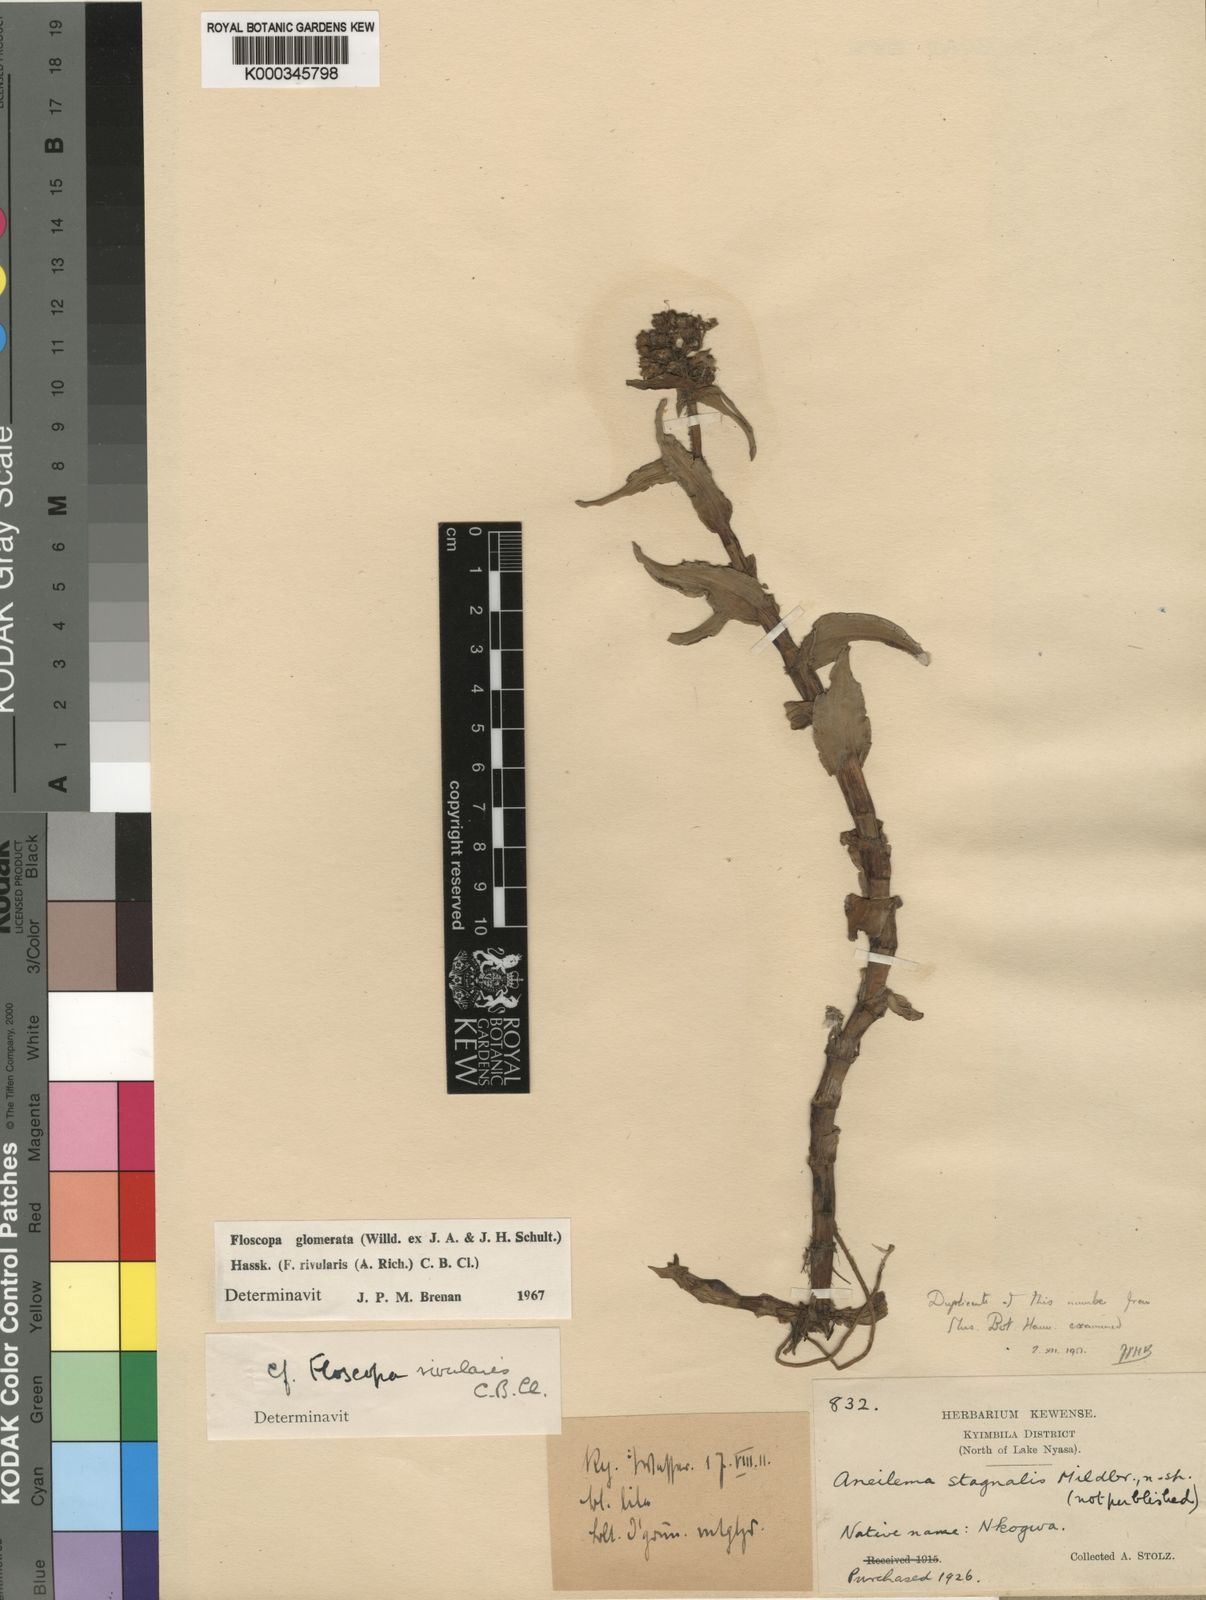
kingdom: Plantae
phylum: Tracheophyta
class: Liliopsida
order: Commelinales
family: Commelinaceae
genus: Floscopa
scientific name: Floscopa glomerata
